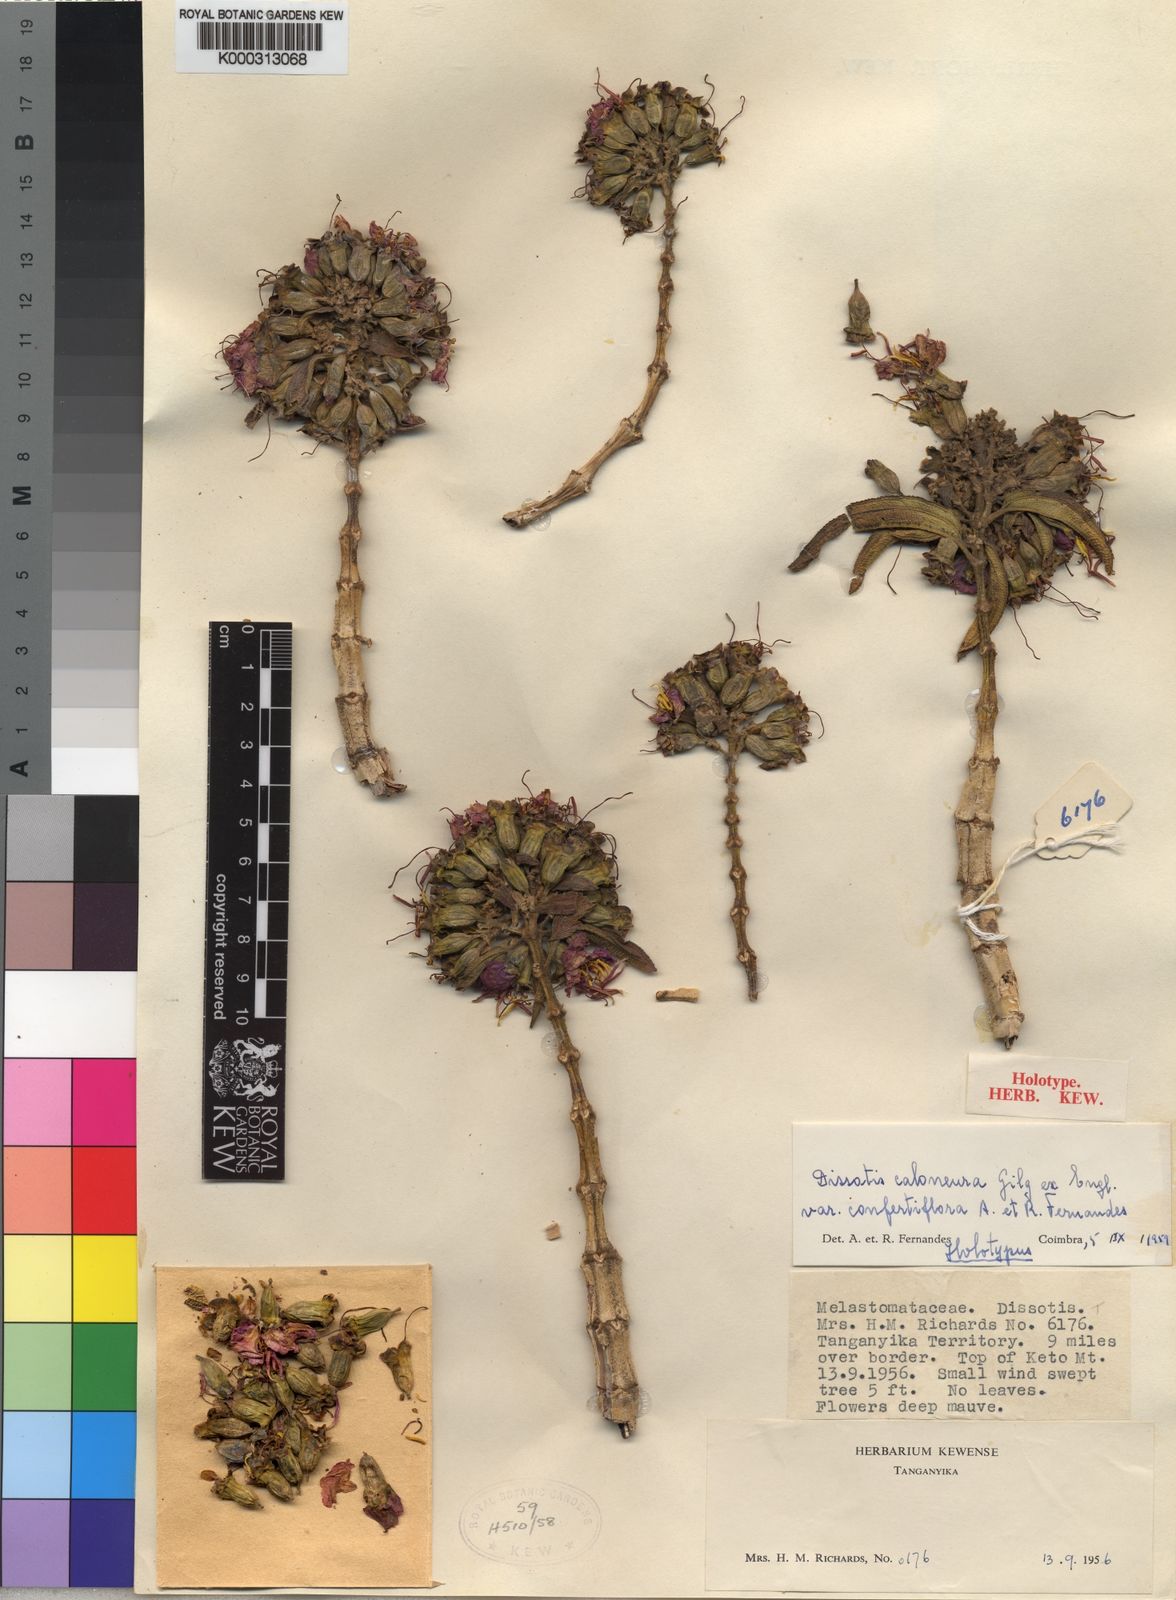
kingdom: Plantae
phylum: Tracheophyta
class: Magnoliopsida
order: Myrtales
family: Melastomataceae
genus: Dissotidendron
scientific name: Dissotidendron caloneurum
